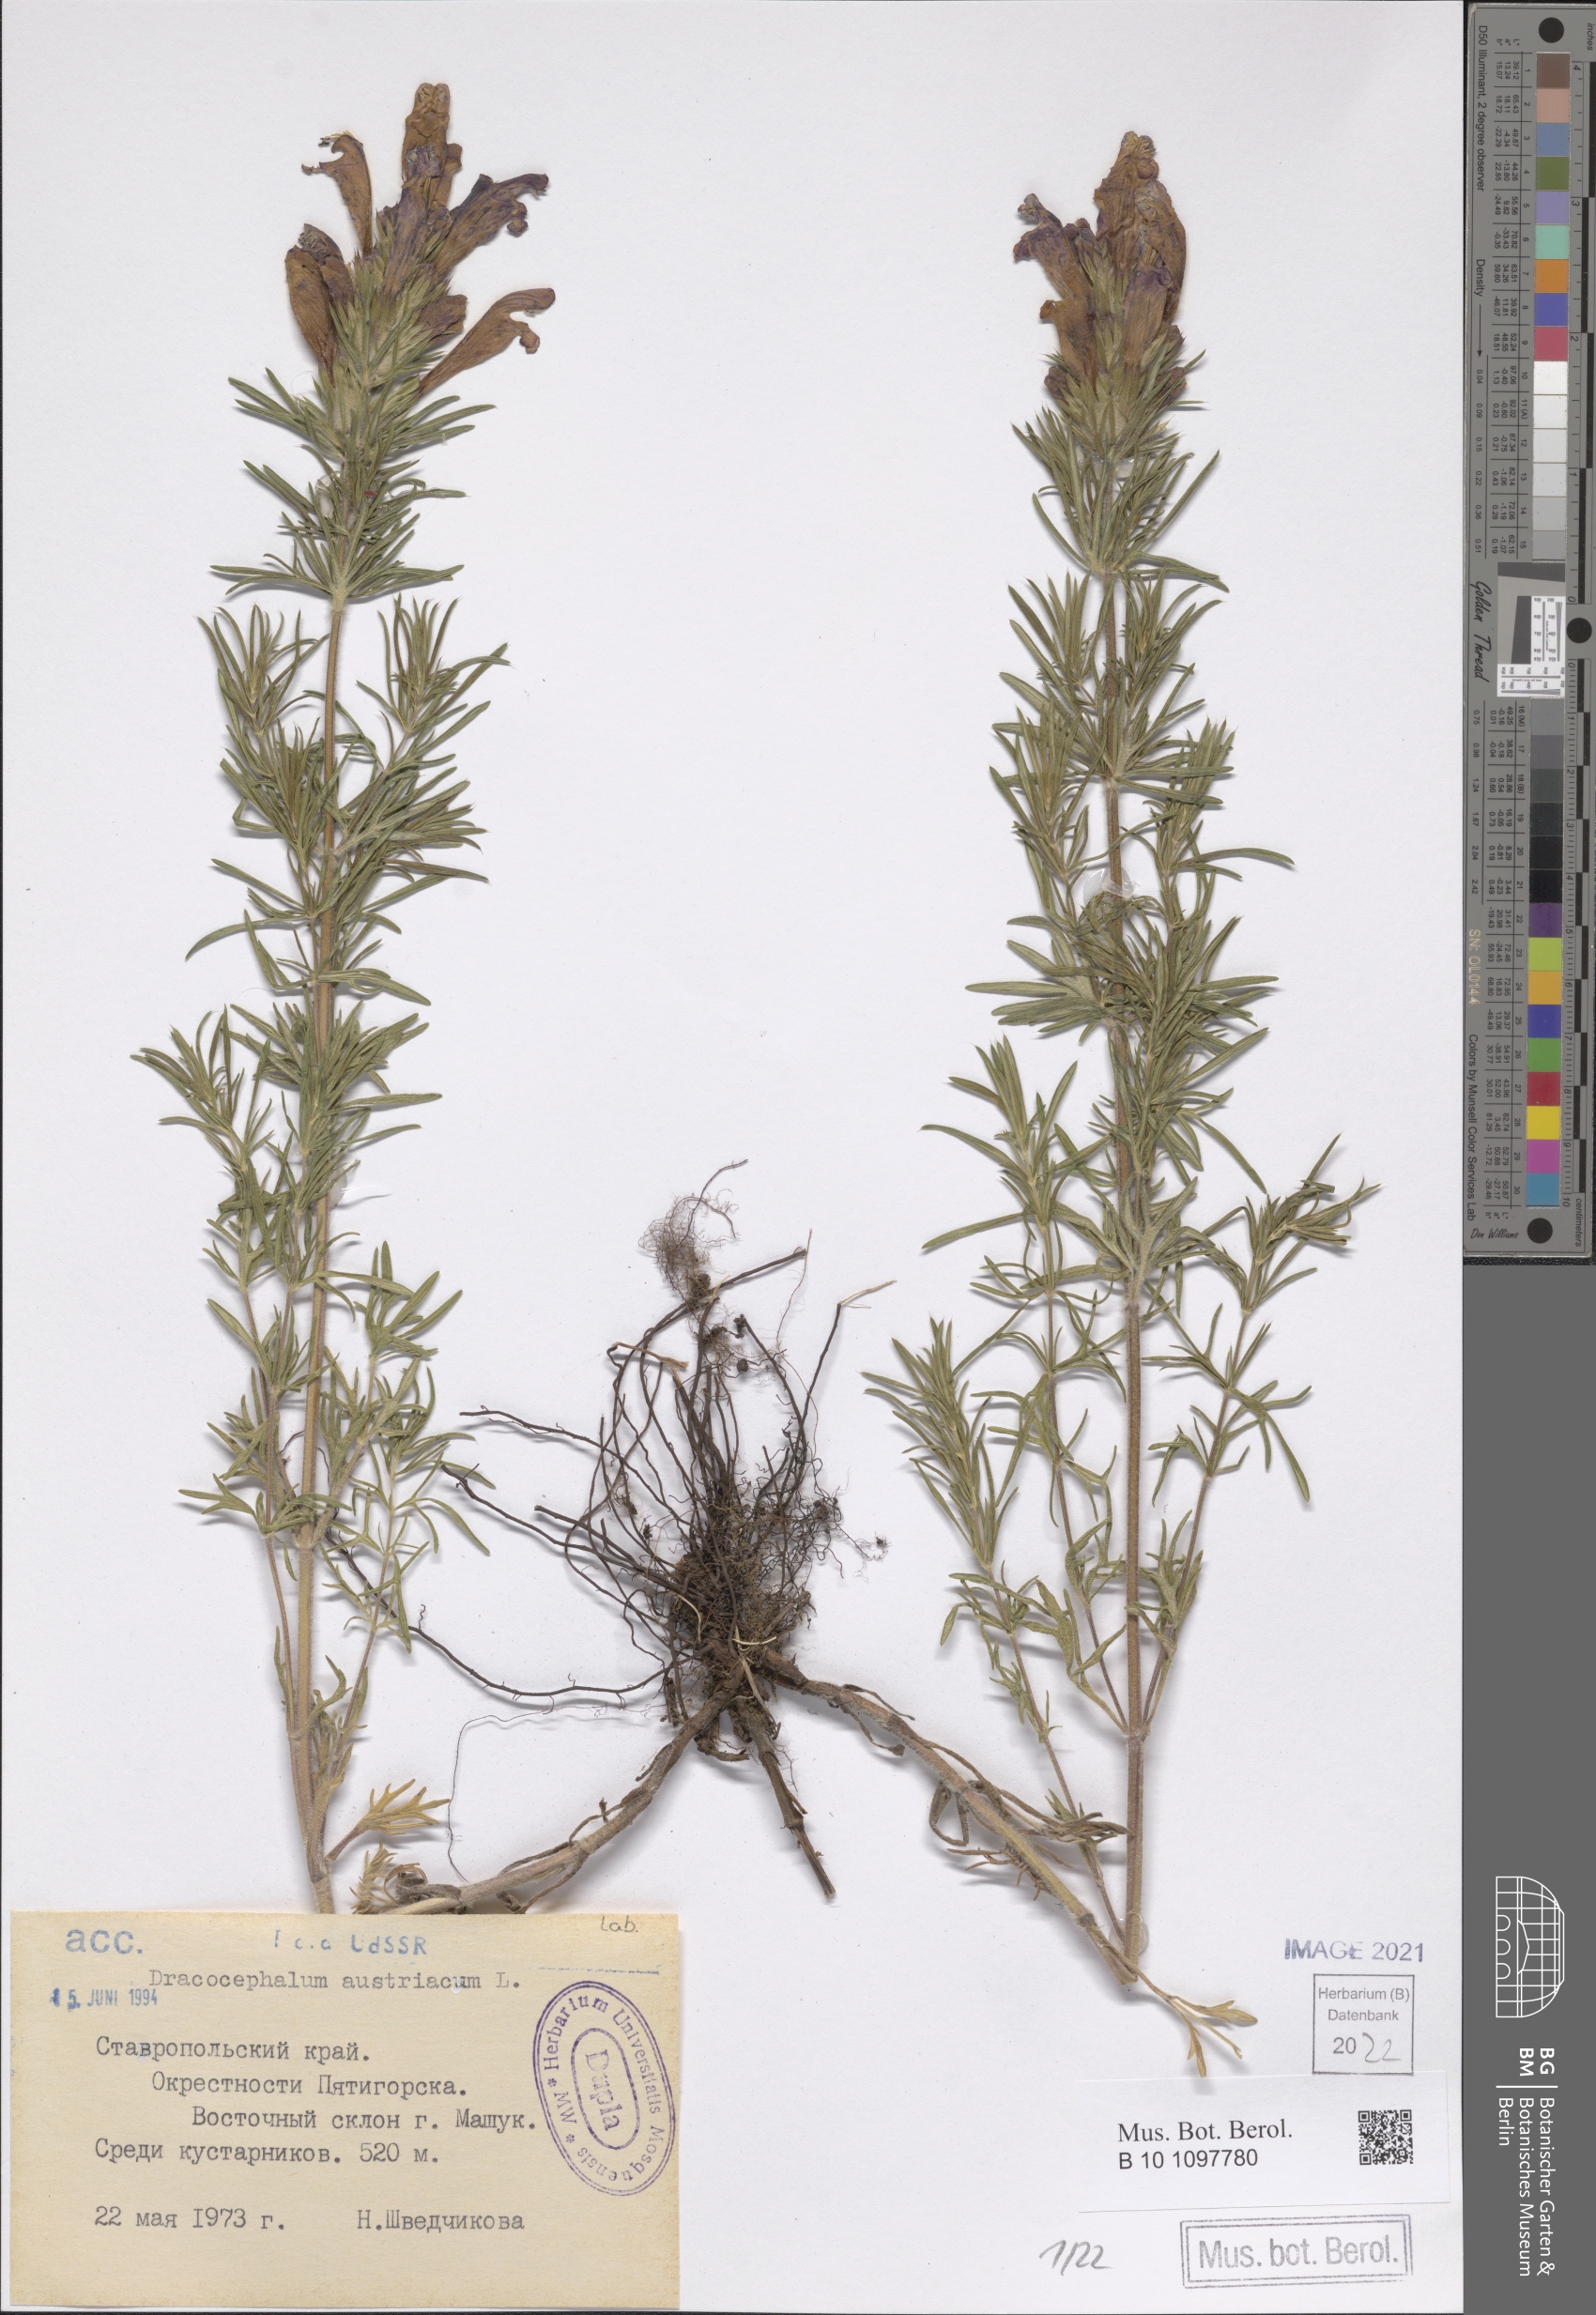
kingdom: Plantae
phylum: Tracheophyta
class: Magnoliopsida
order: Lamiales
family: Lamiaceae
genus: Dracocephalum
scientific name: Dracocephalum austriacum
